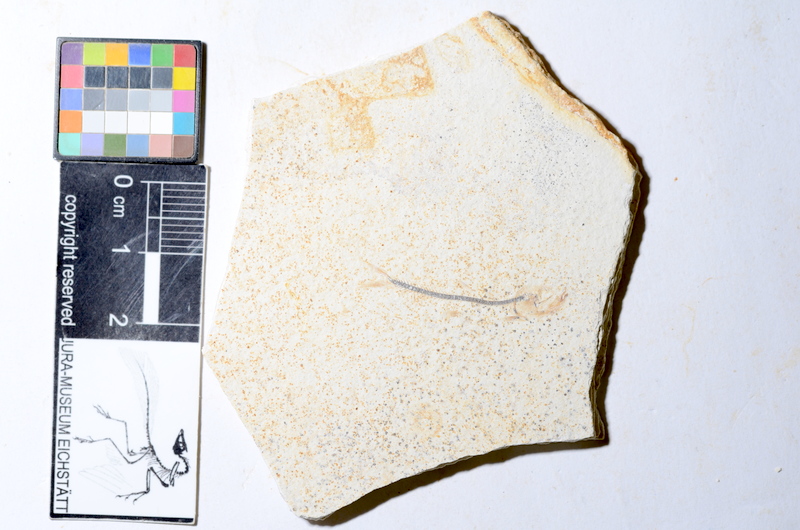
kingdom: Animalia
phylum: Chordata
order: Salmoniformes
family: Orthogonikleithridae
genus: Orthogonikleithrus
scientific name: Orthogonikleithrus hoelli
